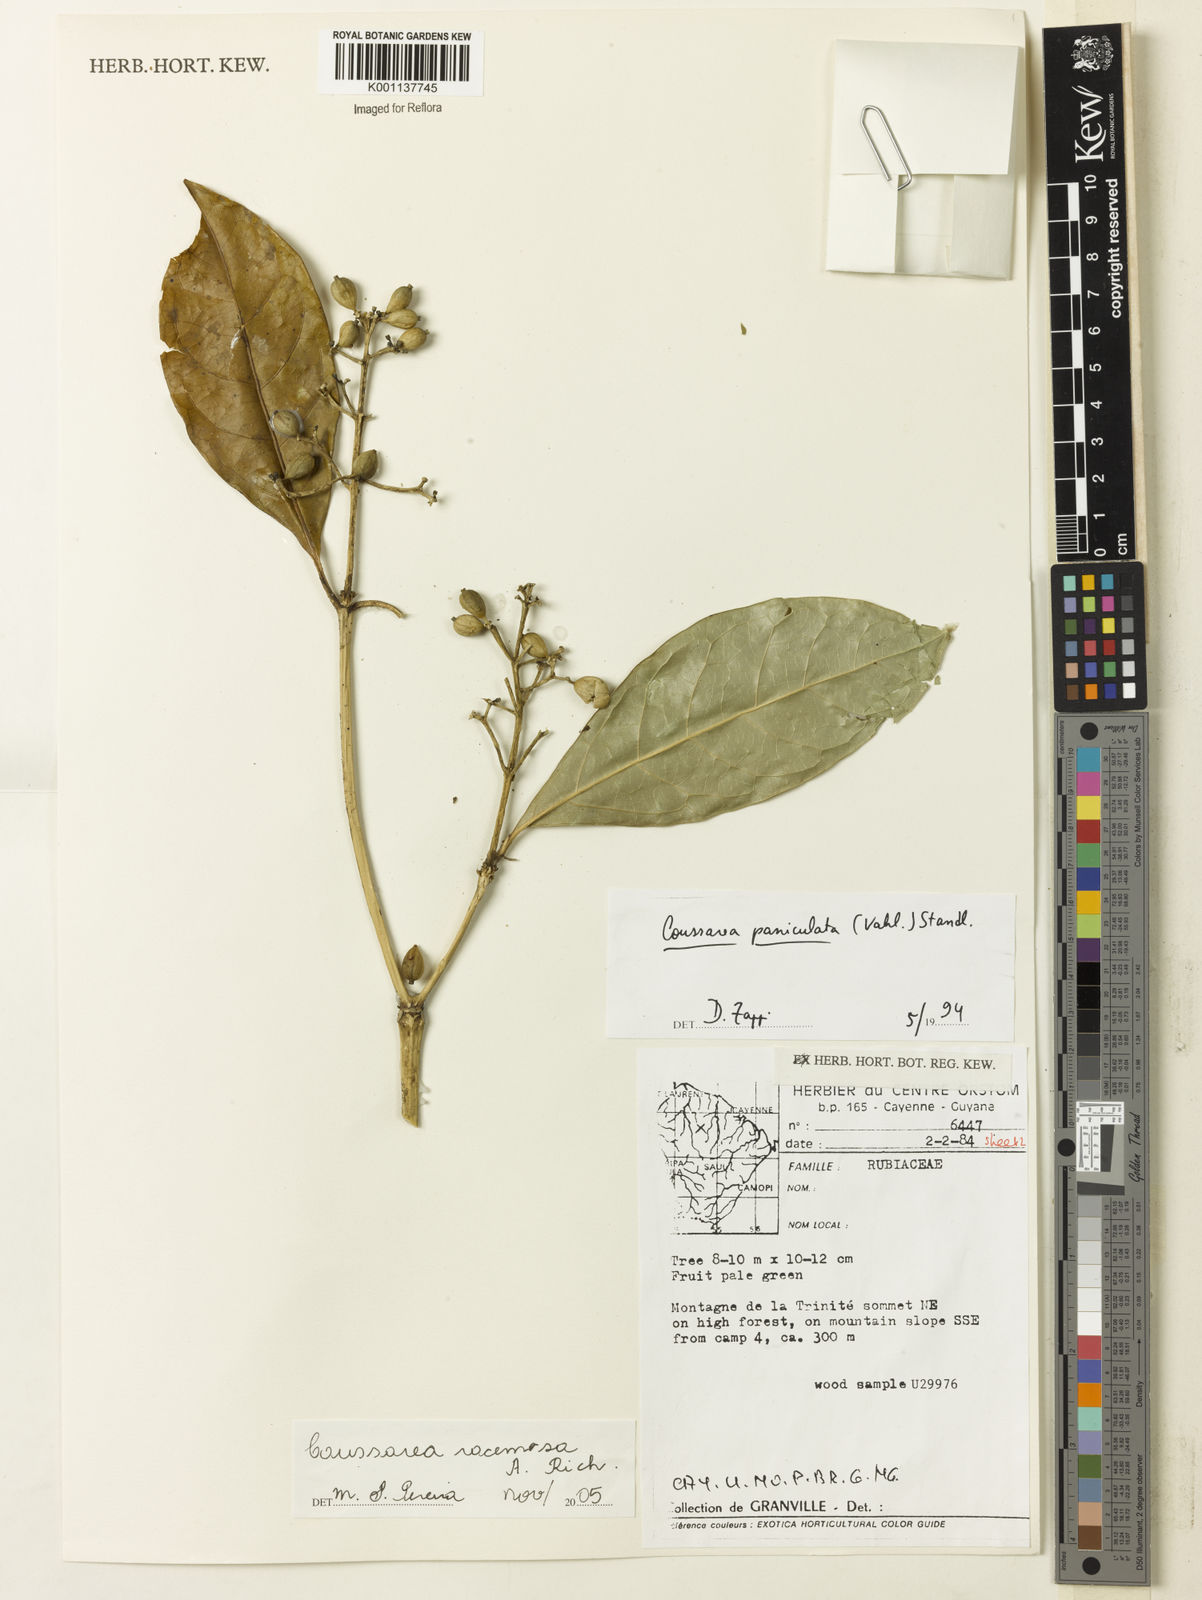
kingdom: Plantae
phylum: Tracheophyta
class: Magnoliopsida
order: Gentianales
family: Rubiaceae
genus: Coussarea
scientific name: Coussarea
